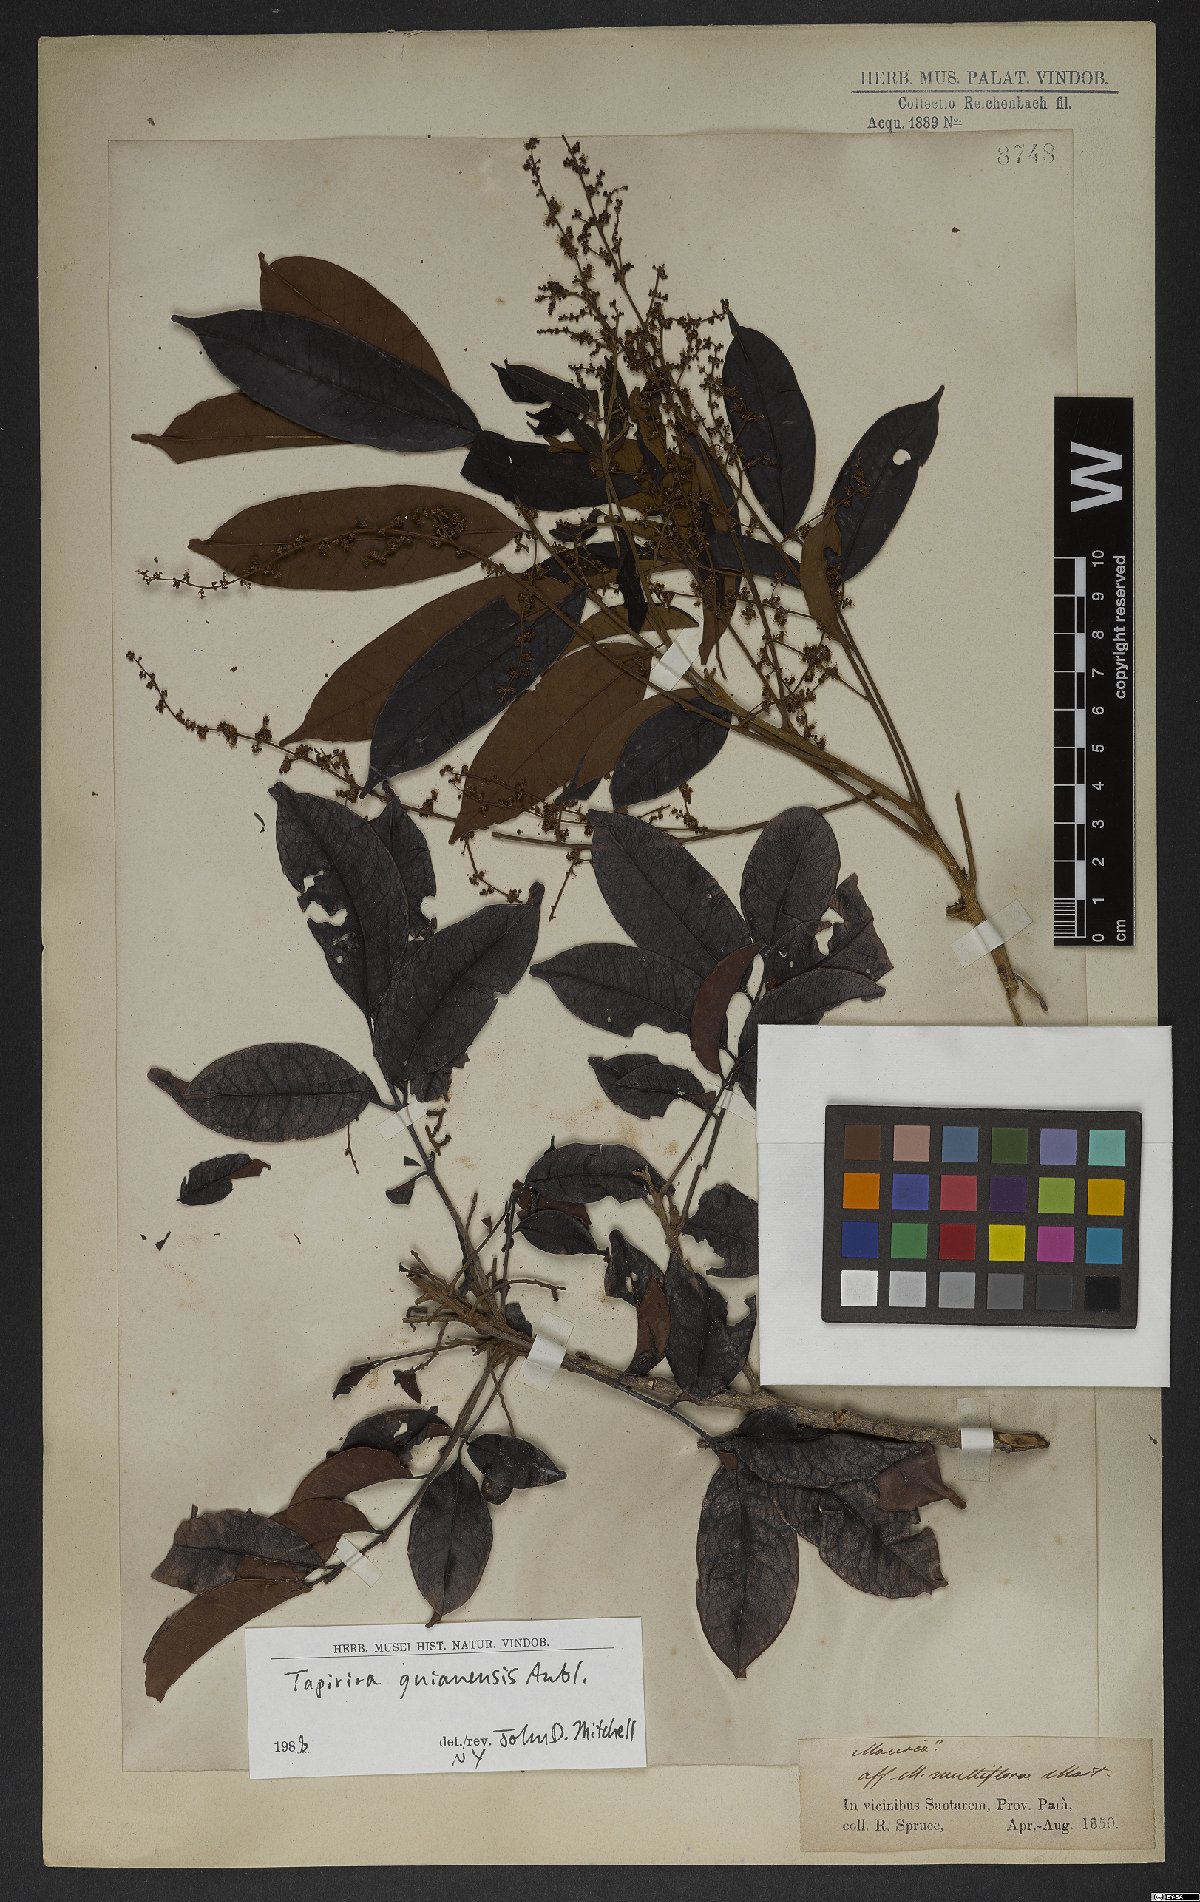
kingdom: Plantae
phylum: Tracheophyta
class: Magnoliopsida
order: Sapindales
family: Anacardiaceae
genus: Tapirira
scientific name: Tapirira guianensis
